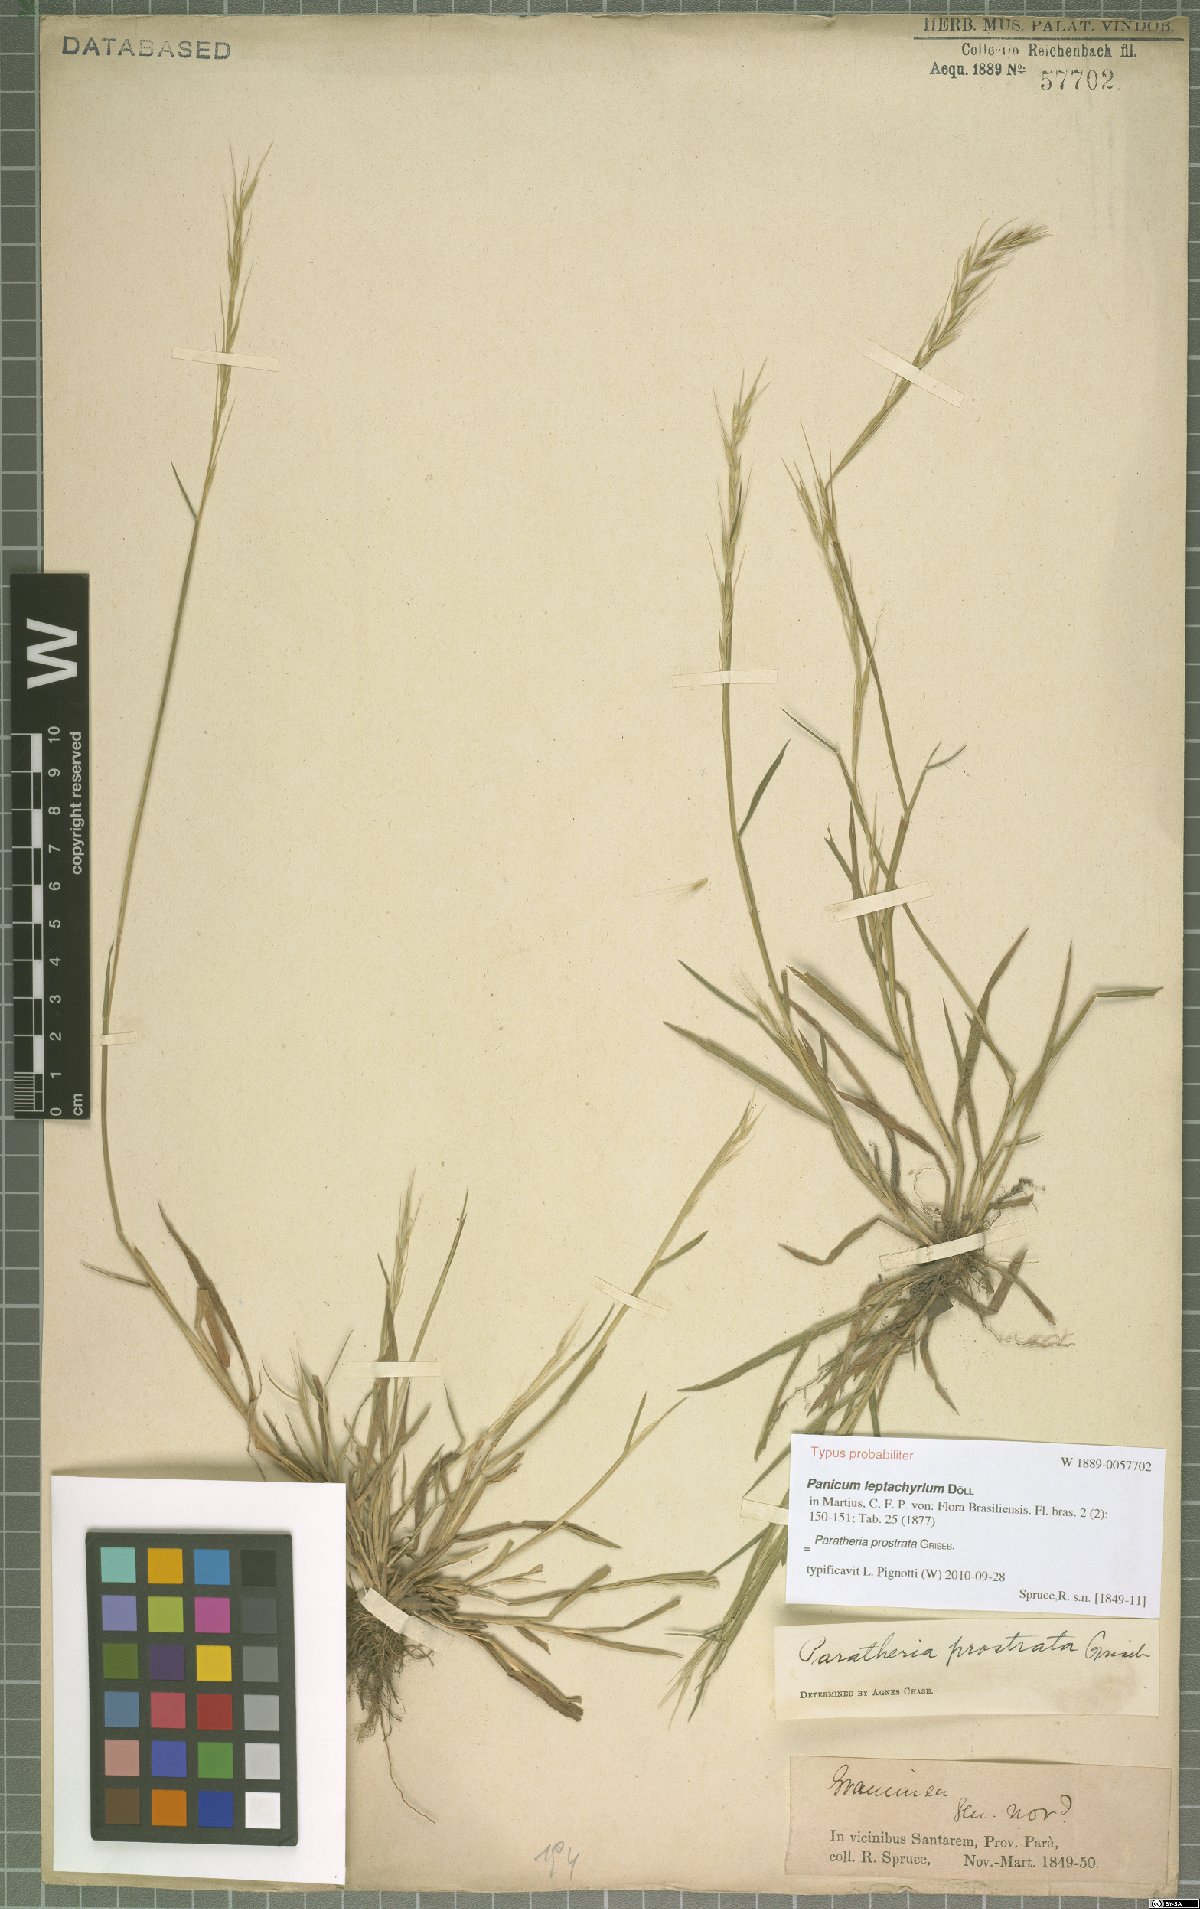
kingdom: Plantae
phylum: Tracheophyta
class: Liliopsida
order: Poales
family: Poaceae
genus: Paratheria
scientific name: Paratheria prostrata
